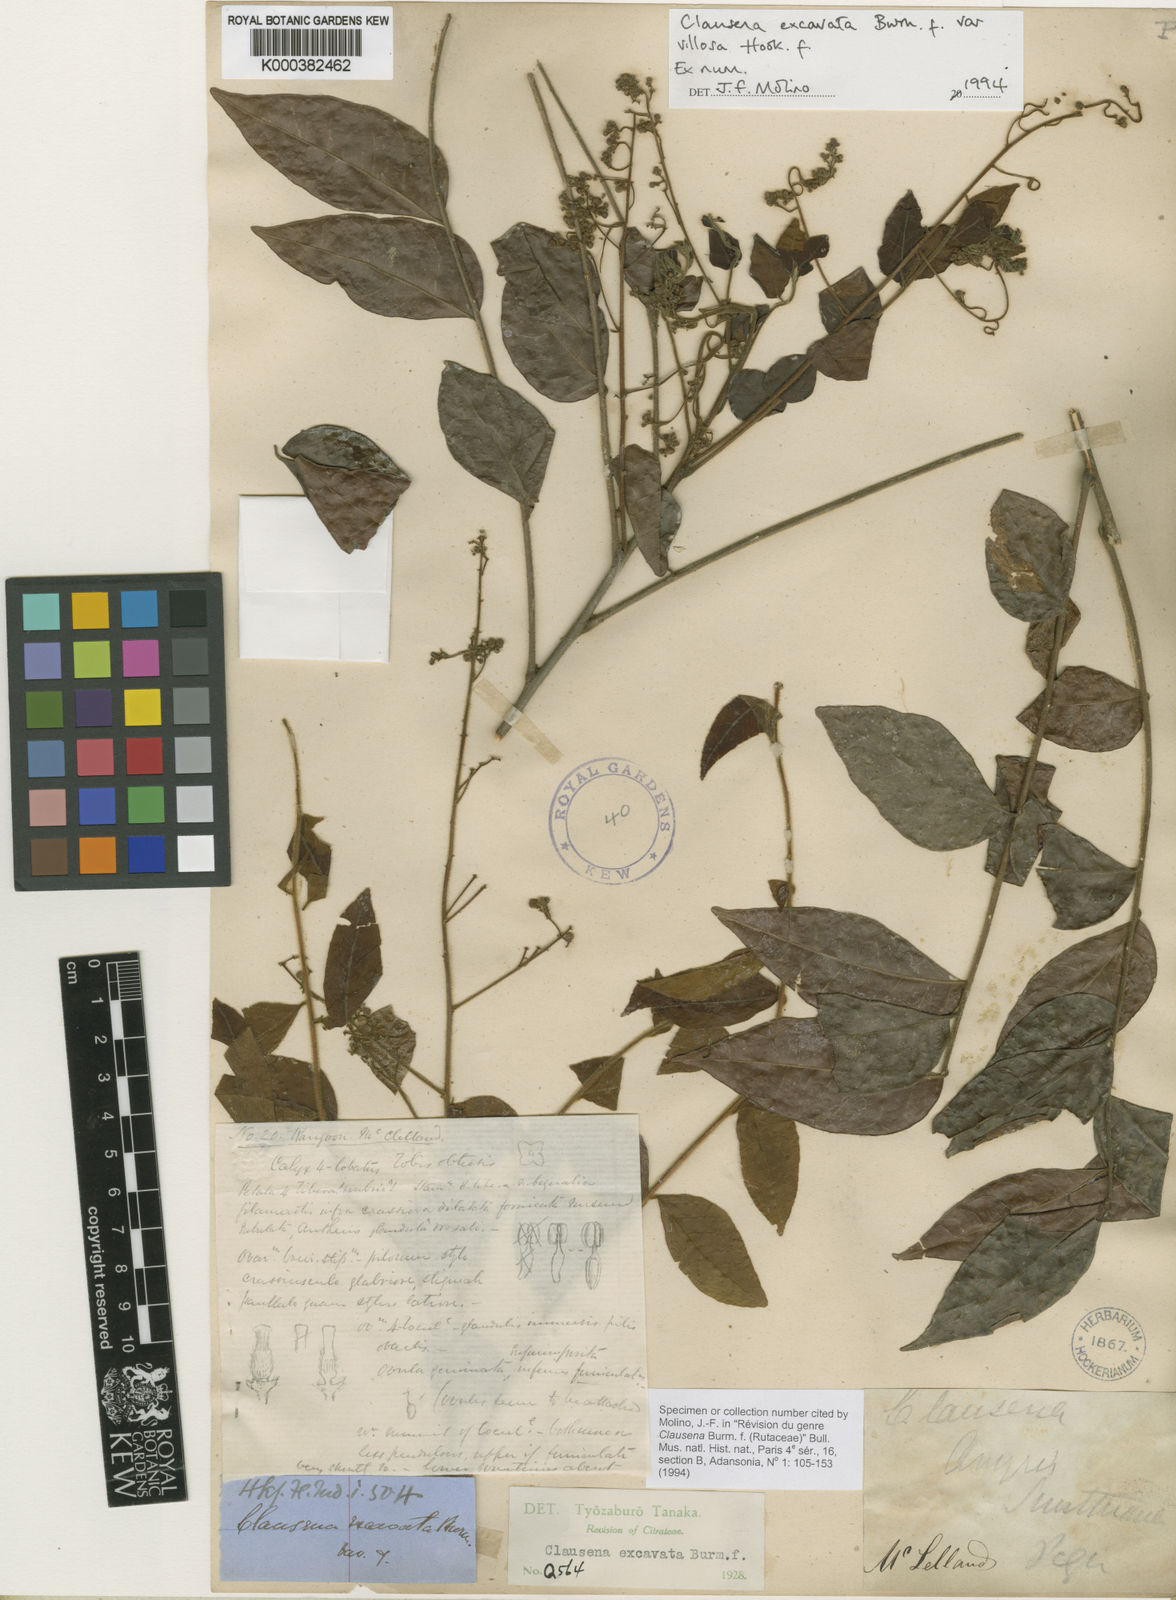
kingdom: Plantae
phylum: Tracheophyta
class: Magnoliopsida
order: Sapindales
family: Rutaceae
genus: Clausena
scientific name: Clausena excavata
